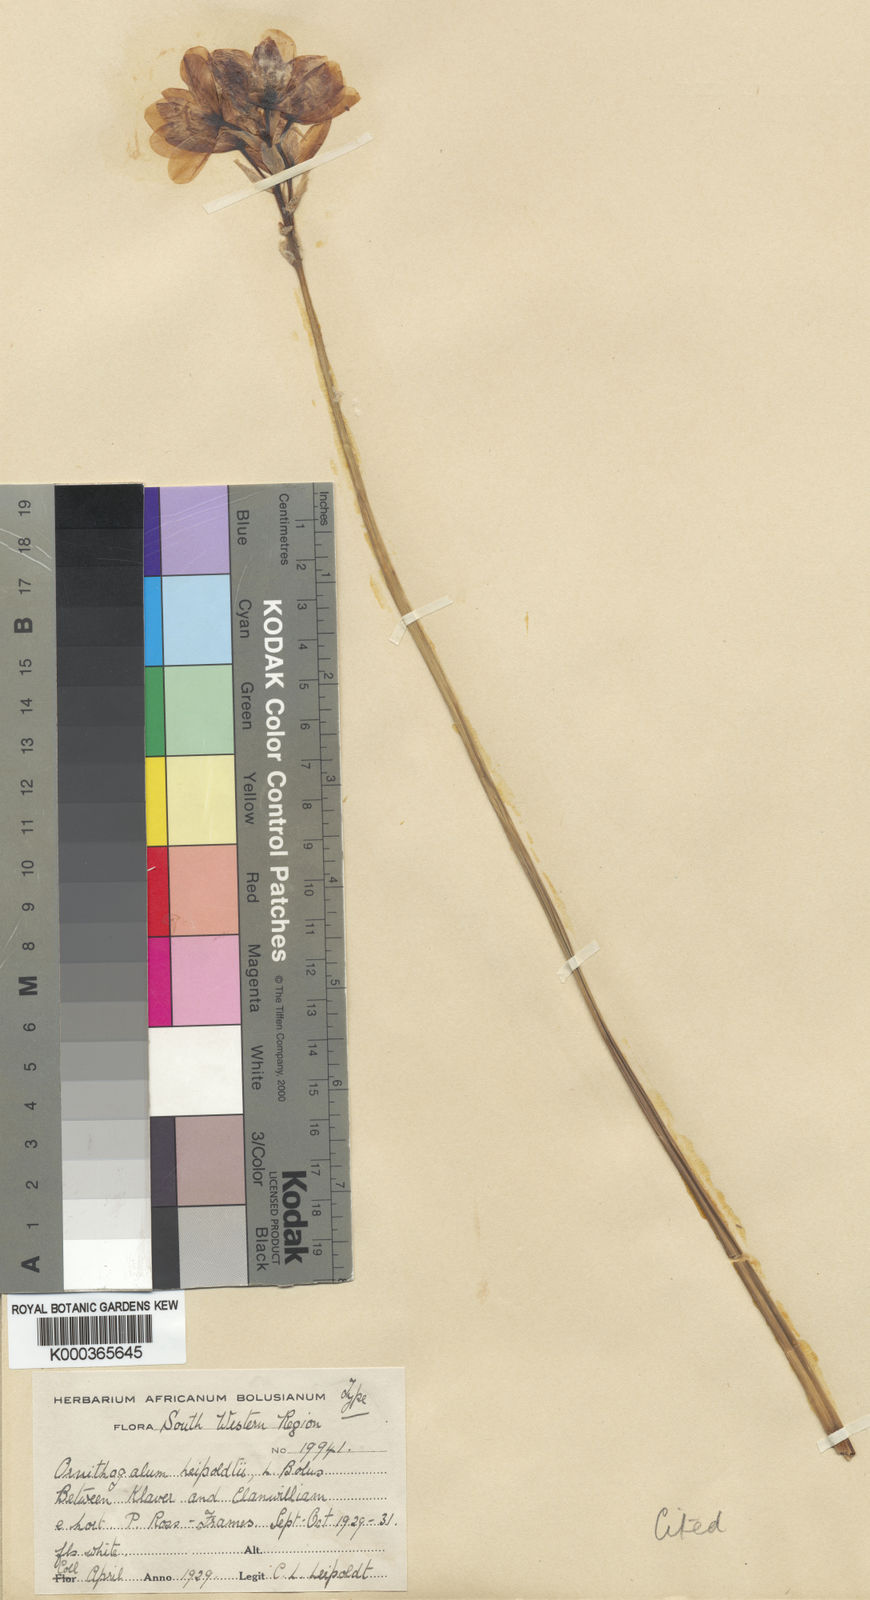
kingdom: Plantae
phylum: Tracheophyta
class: Liliopsida
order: Asparagales
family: Asparagaceae
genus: Ornithogalum
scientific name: Ornithogalum dubium
